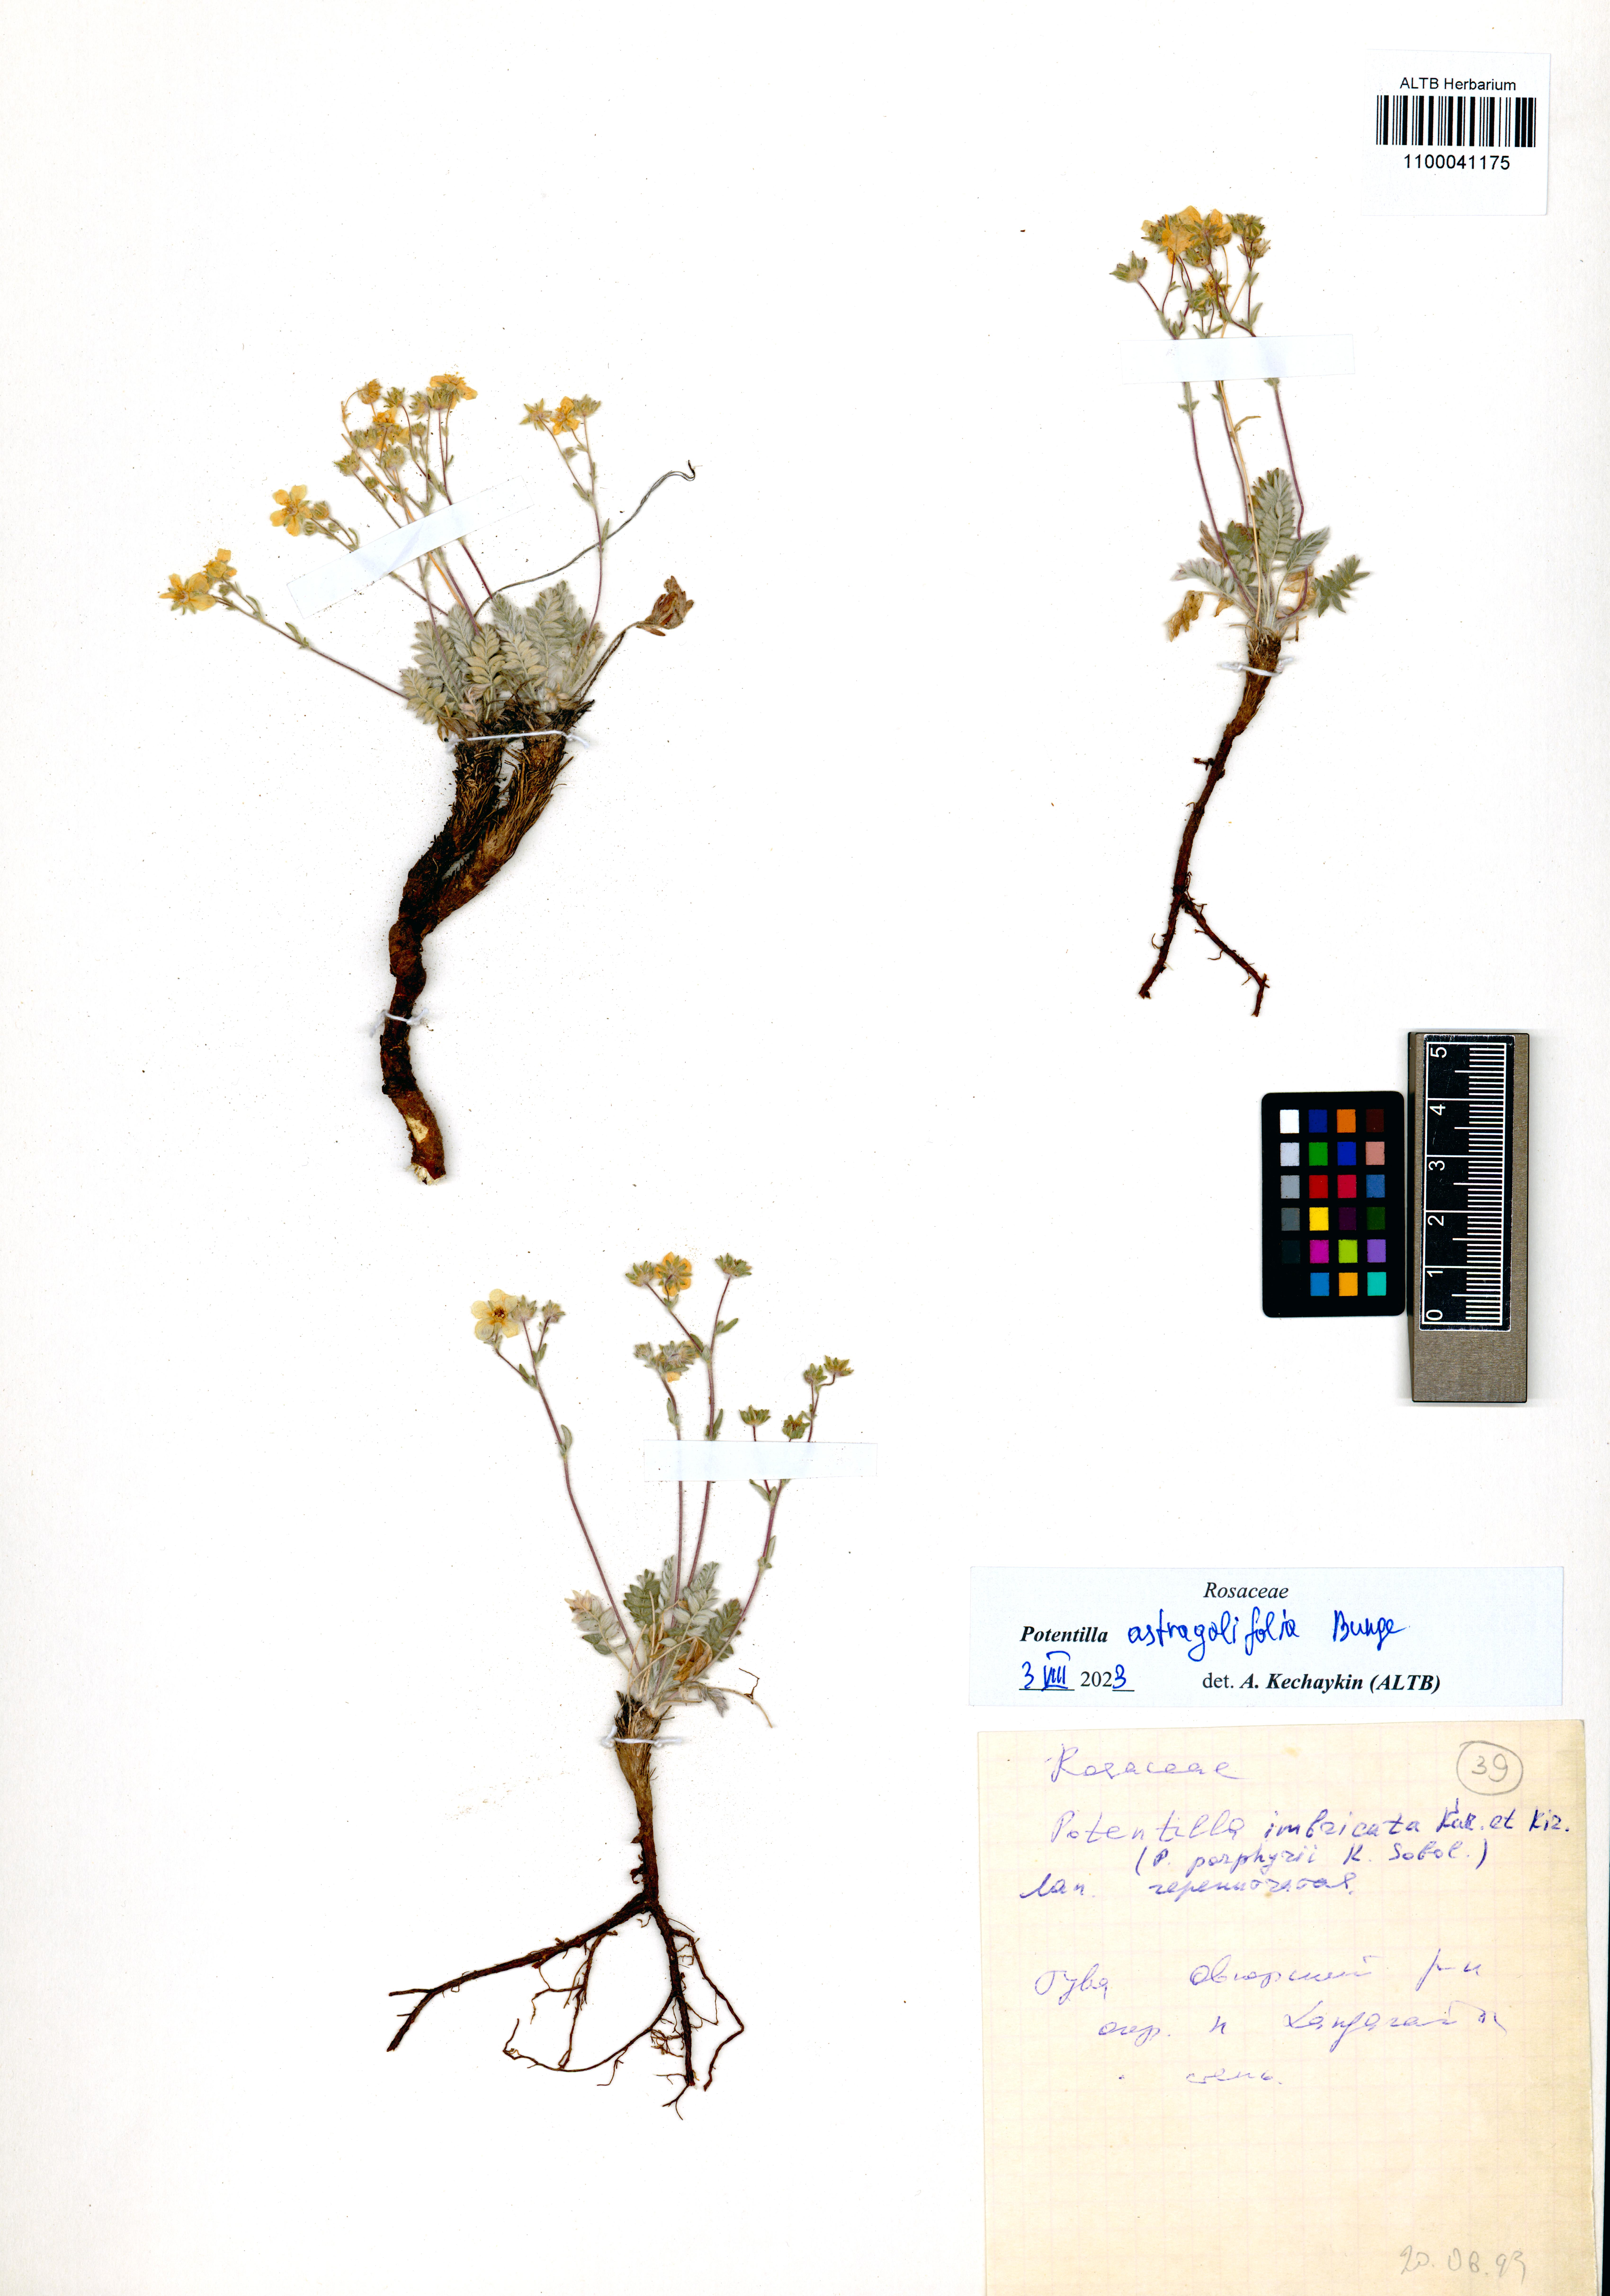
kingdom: Plantae
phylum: Tracheophyta
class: Magnoliopsida
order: Rosales
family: Rosaceae
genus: Potentilla
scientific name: Potentilla astragalifolia
